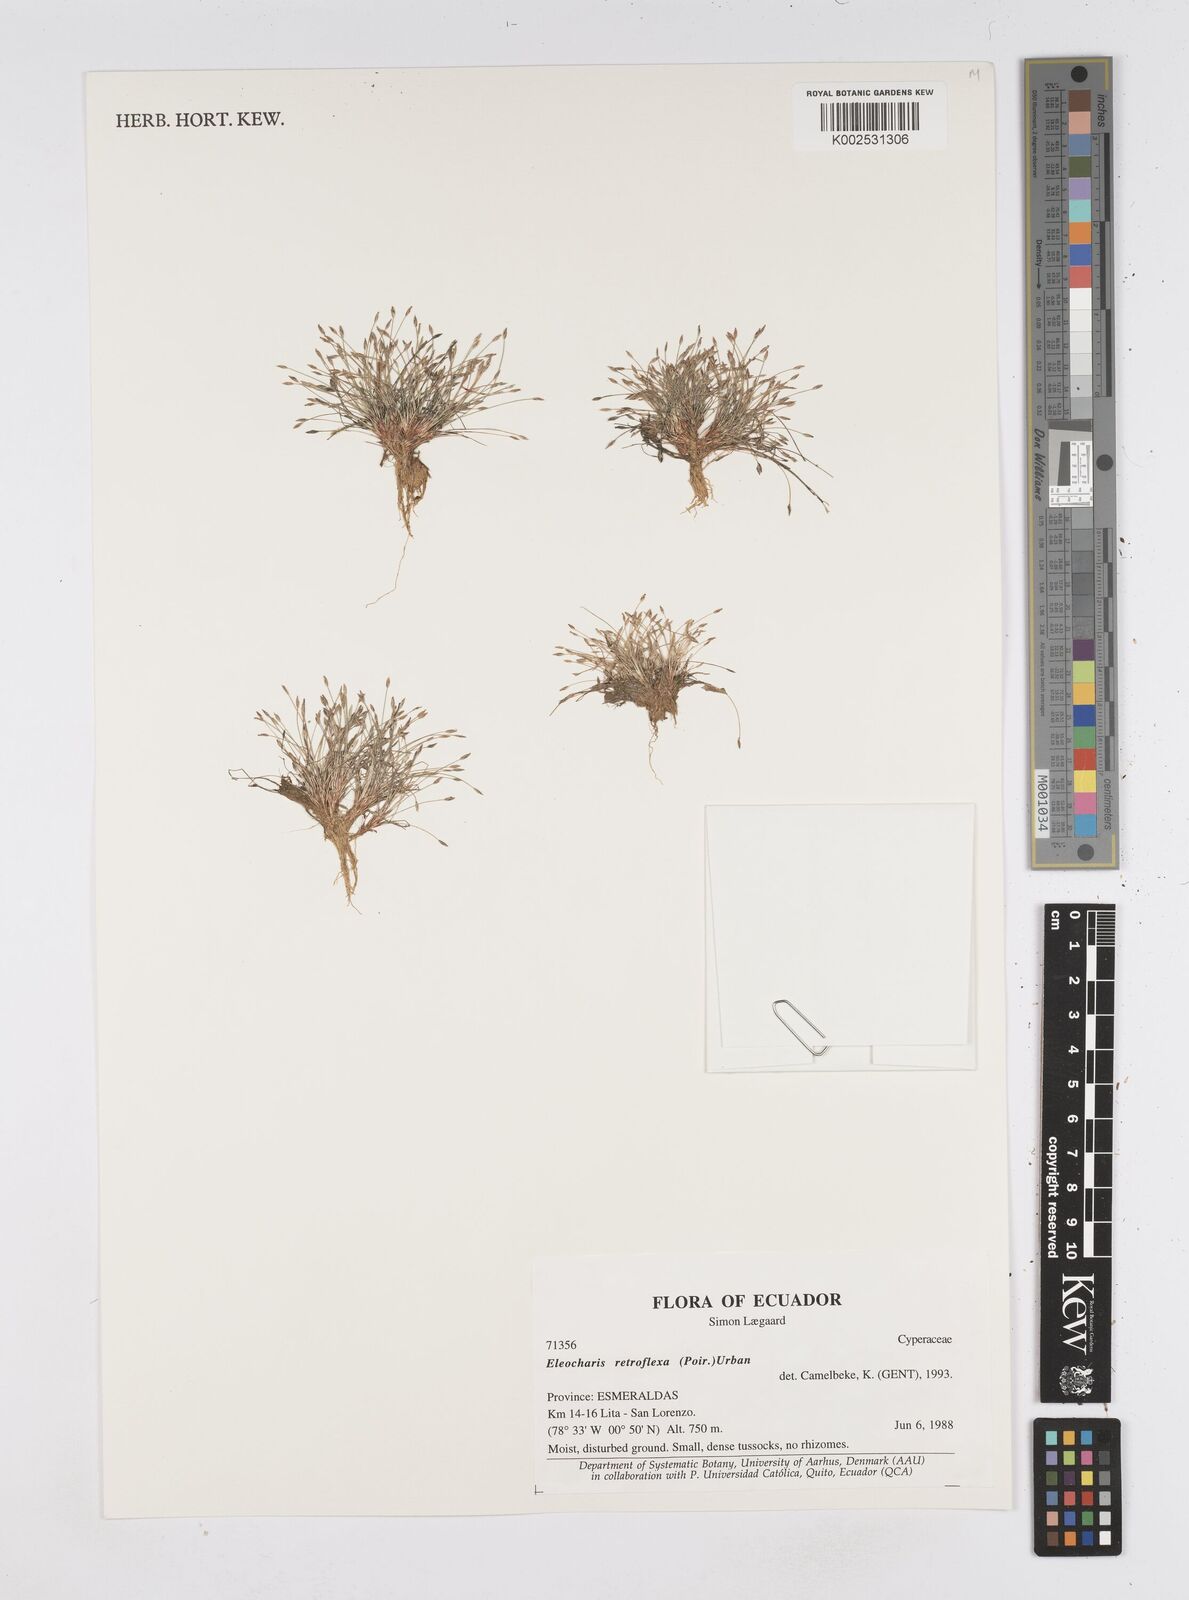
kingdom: Plantae
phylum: Tracheophyta
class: Liliopsida
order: Poales
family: Cyperaceae
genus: Eleocharis
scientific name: Eleocharis retroflexa
